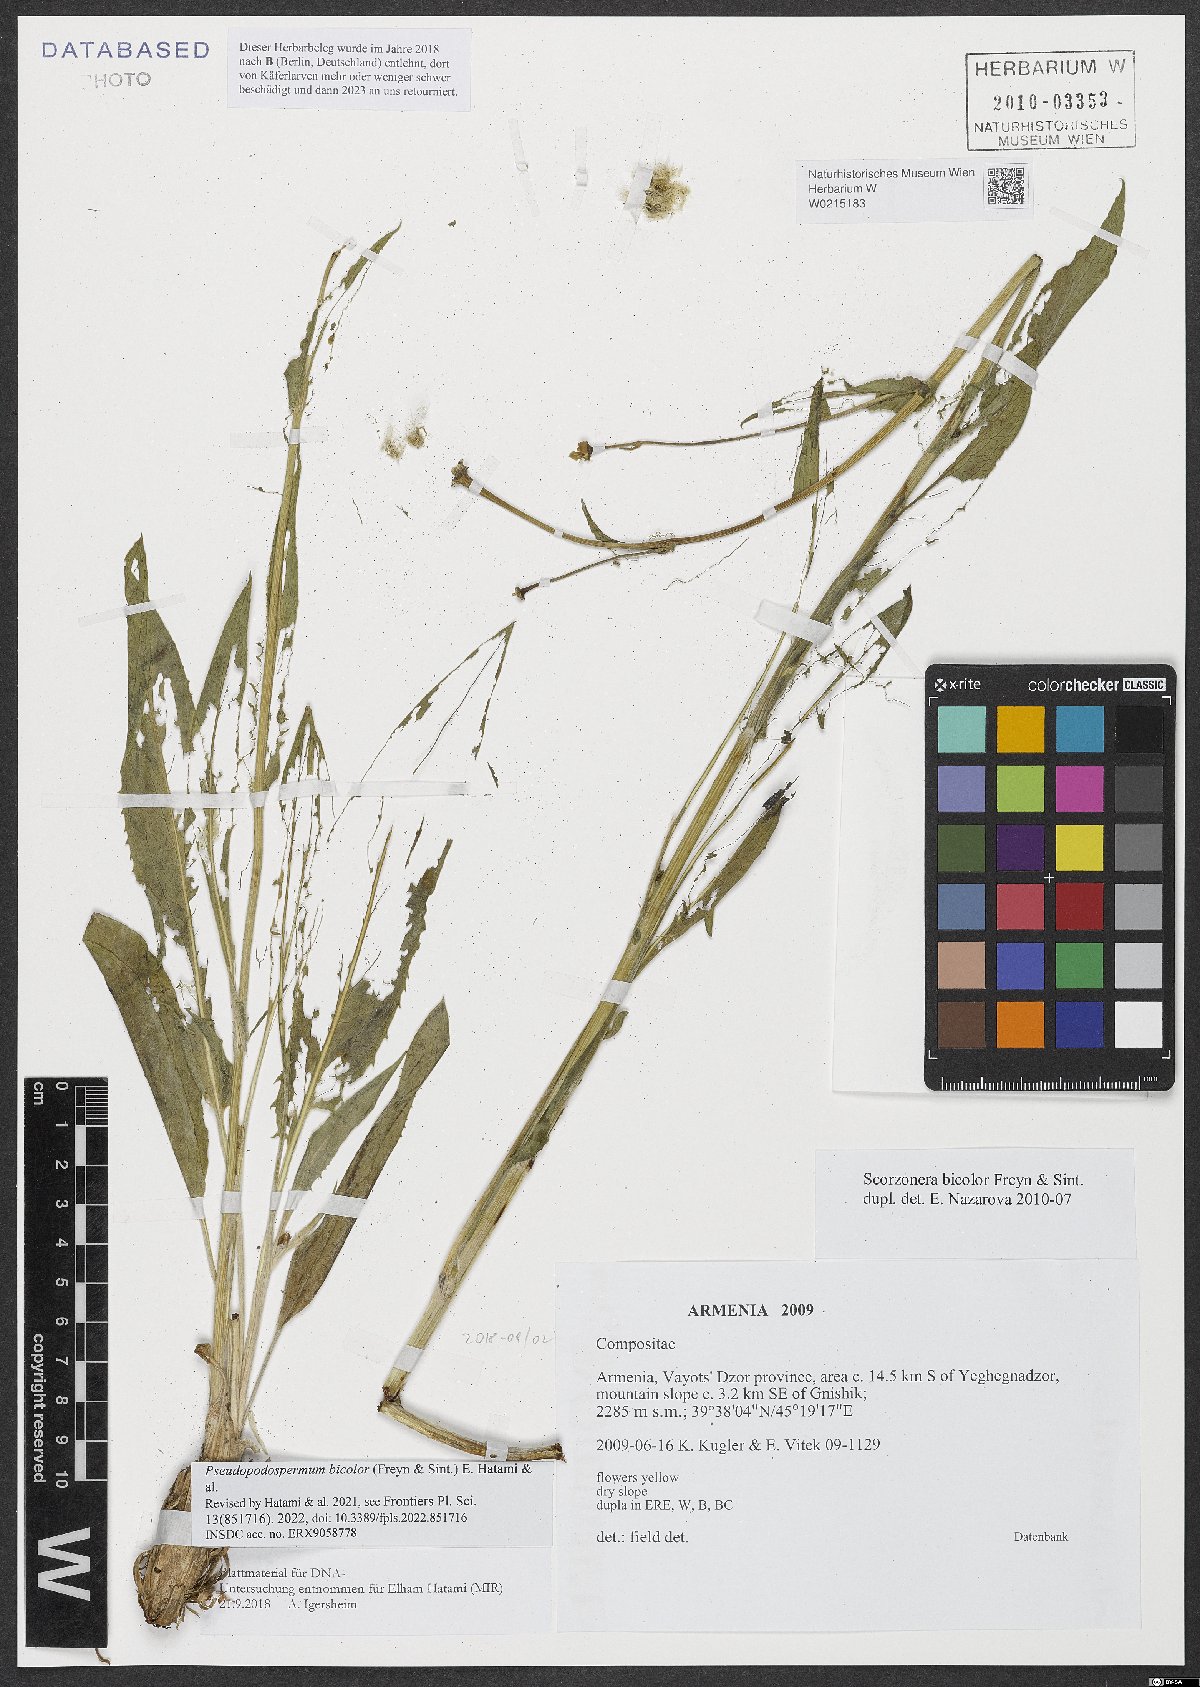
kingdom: Plantae
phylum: Tracheophyta
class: Magnoliopsida
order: Asterales
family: Asteraceae
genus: Aslia
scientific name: Aslia bicolor
